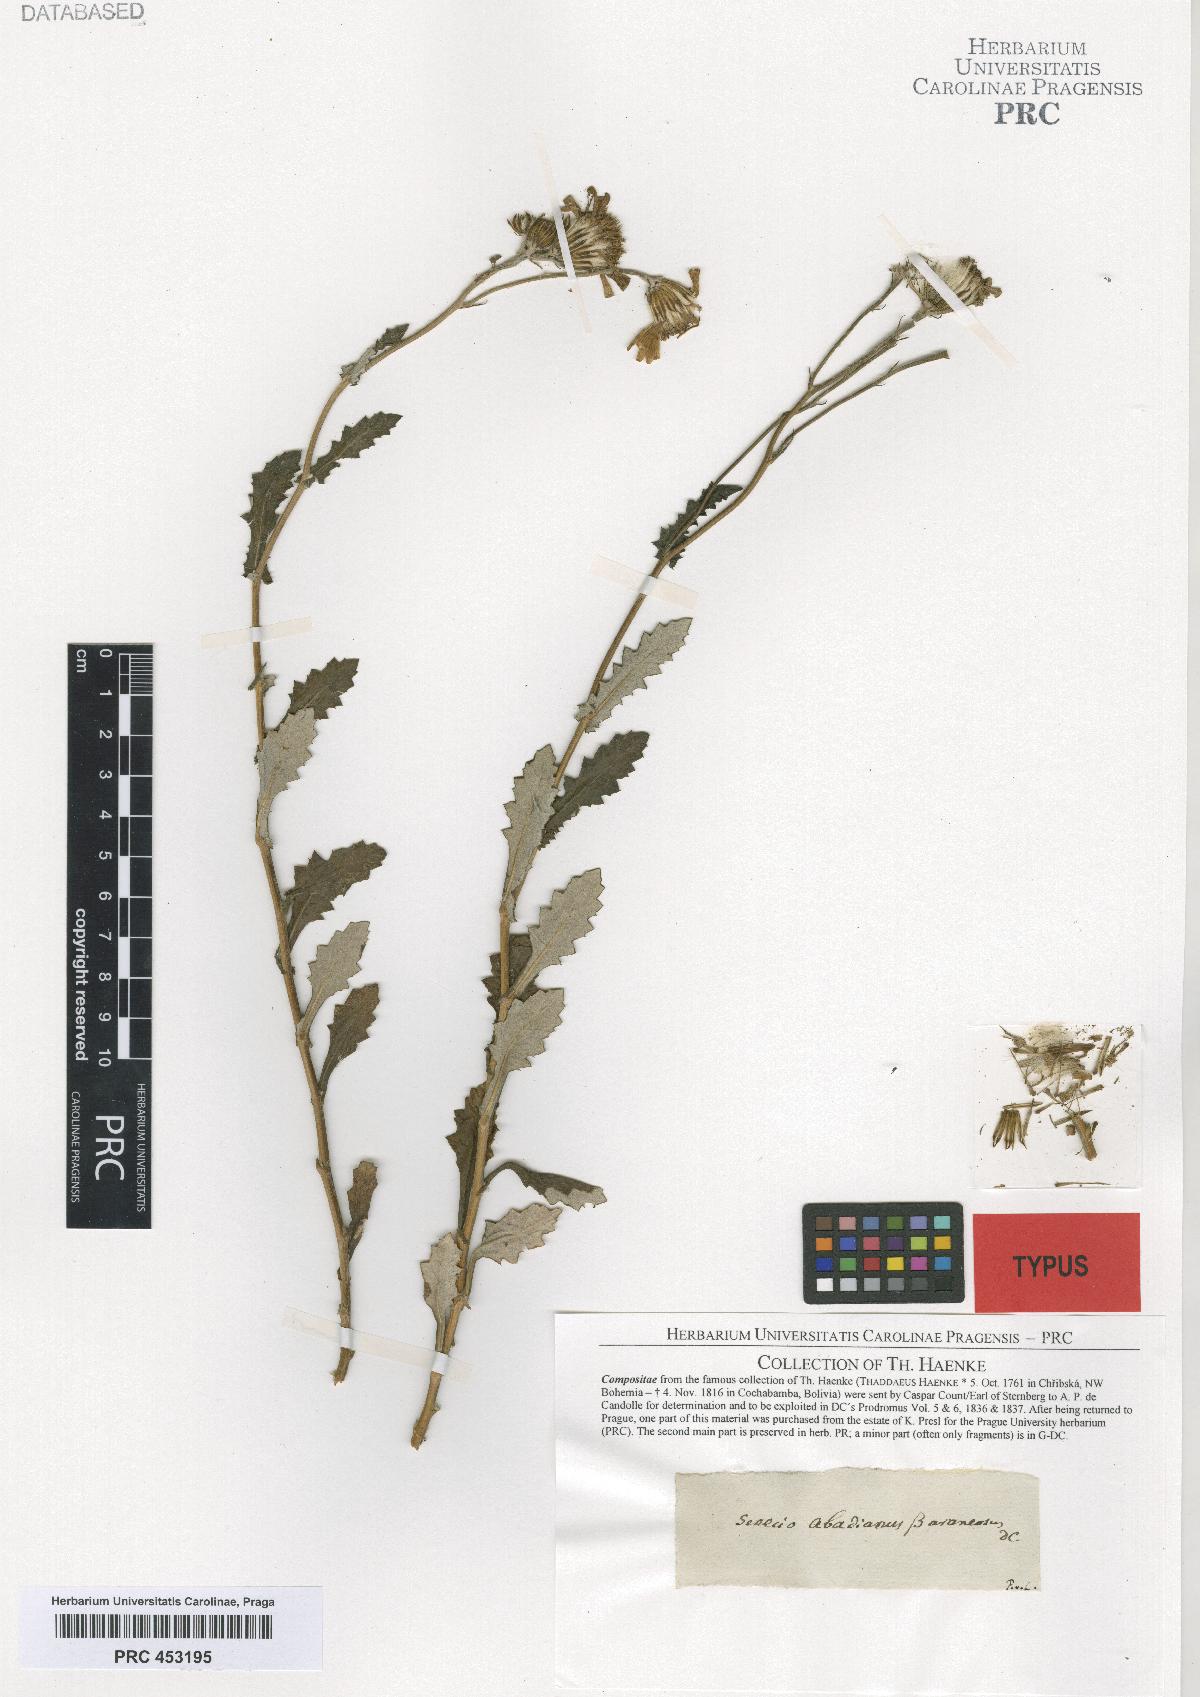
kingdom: Plantae
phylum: Tracheophyta
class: Magnoliopsida
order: Asterales
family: Asteraceae
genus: Lomanthus
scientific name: Lomanthus abadianus
